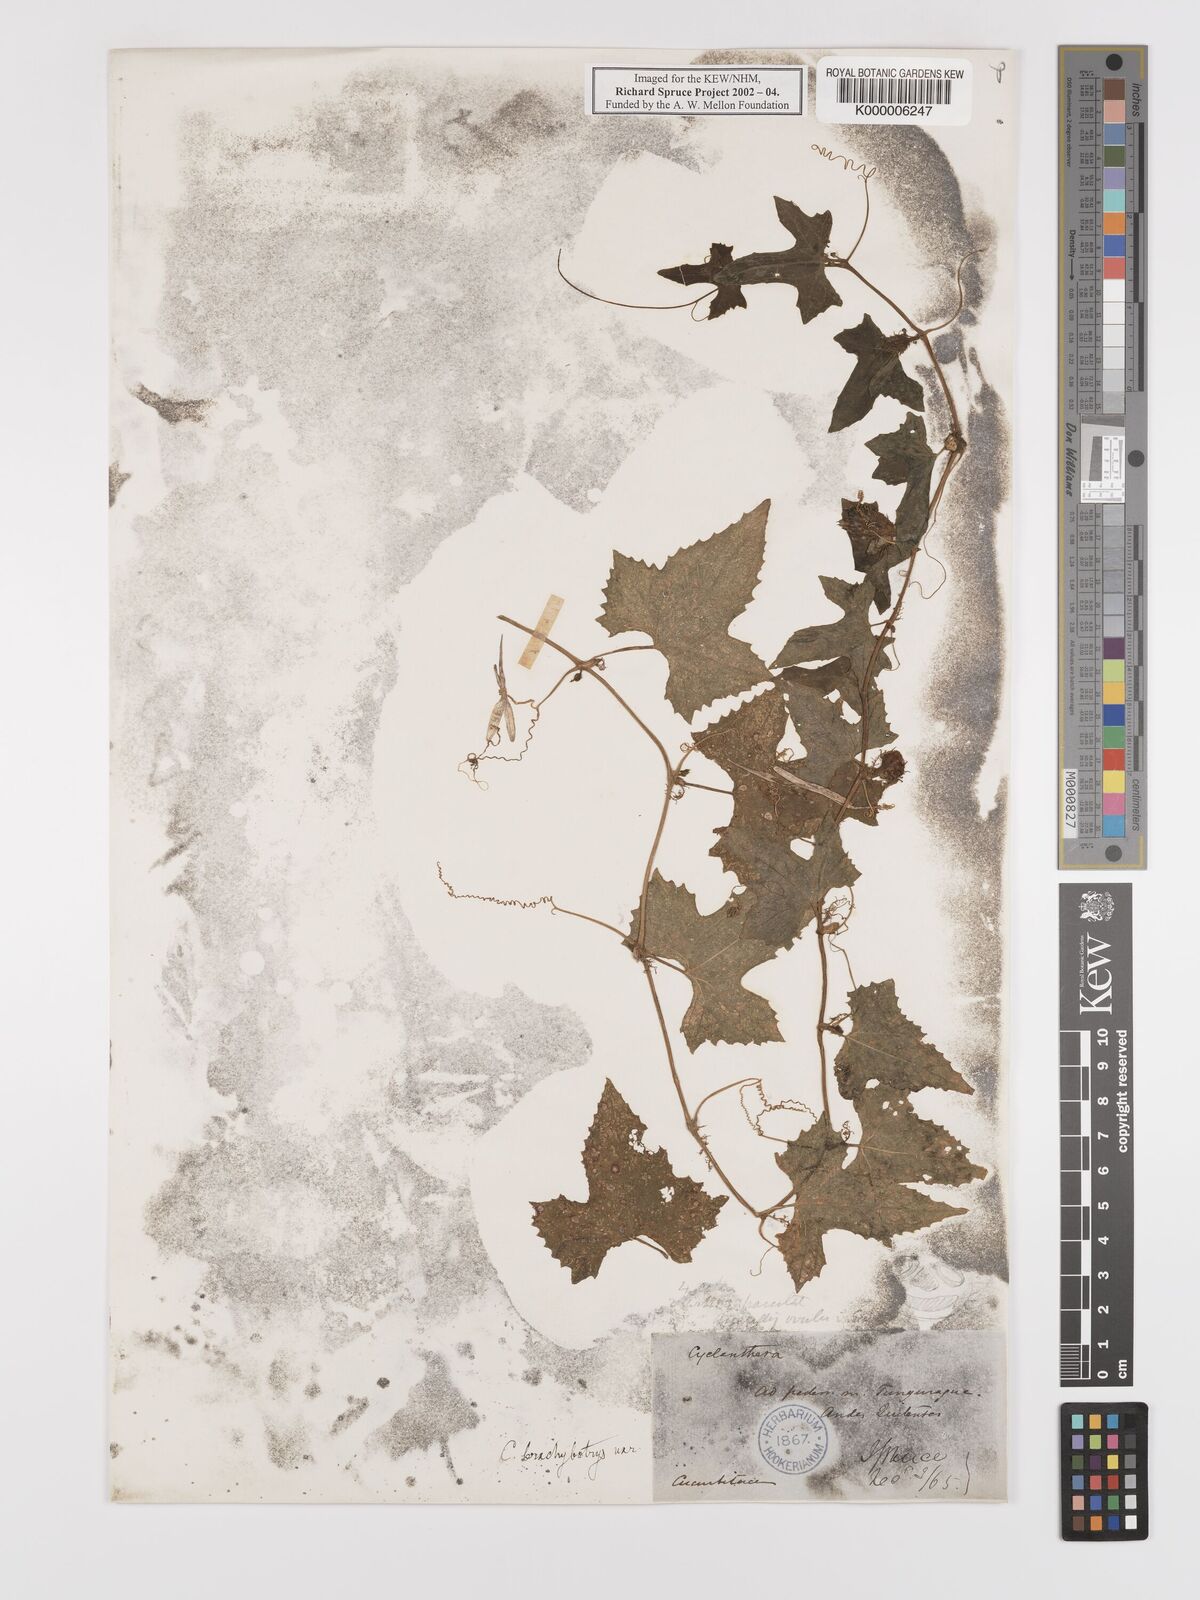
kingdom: Plantae
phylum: Tracheophyta
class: Magnoliopsida
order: Cucurbitales
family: Cucurbitaceae
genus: Cyclanthera
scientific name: Cyclanthera brachybotrys
